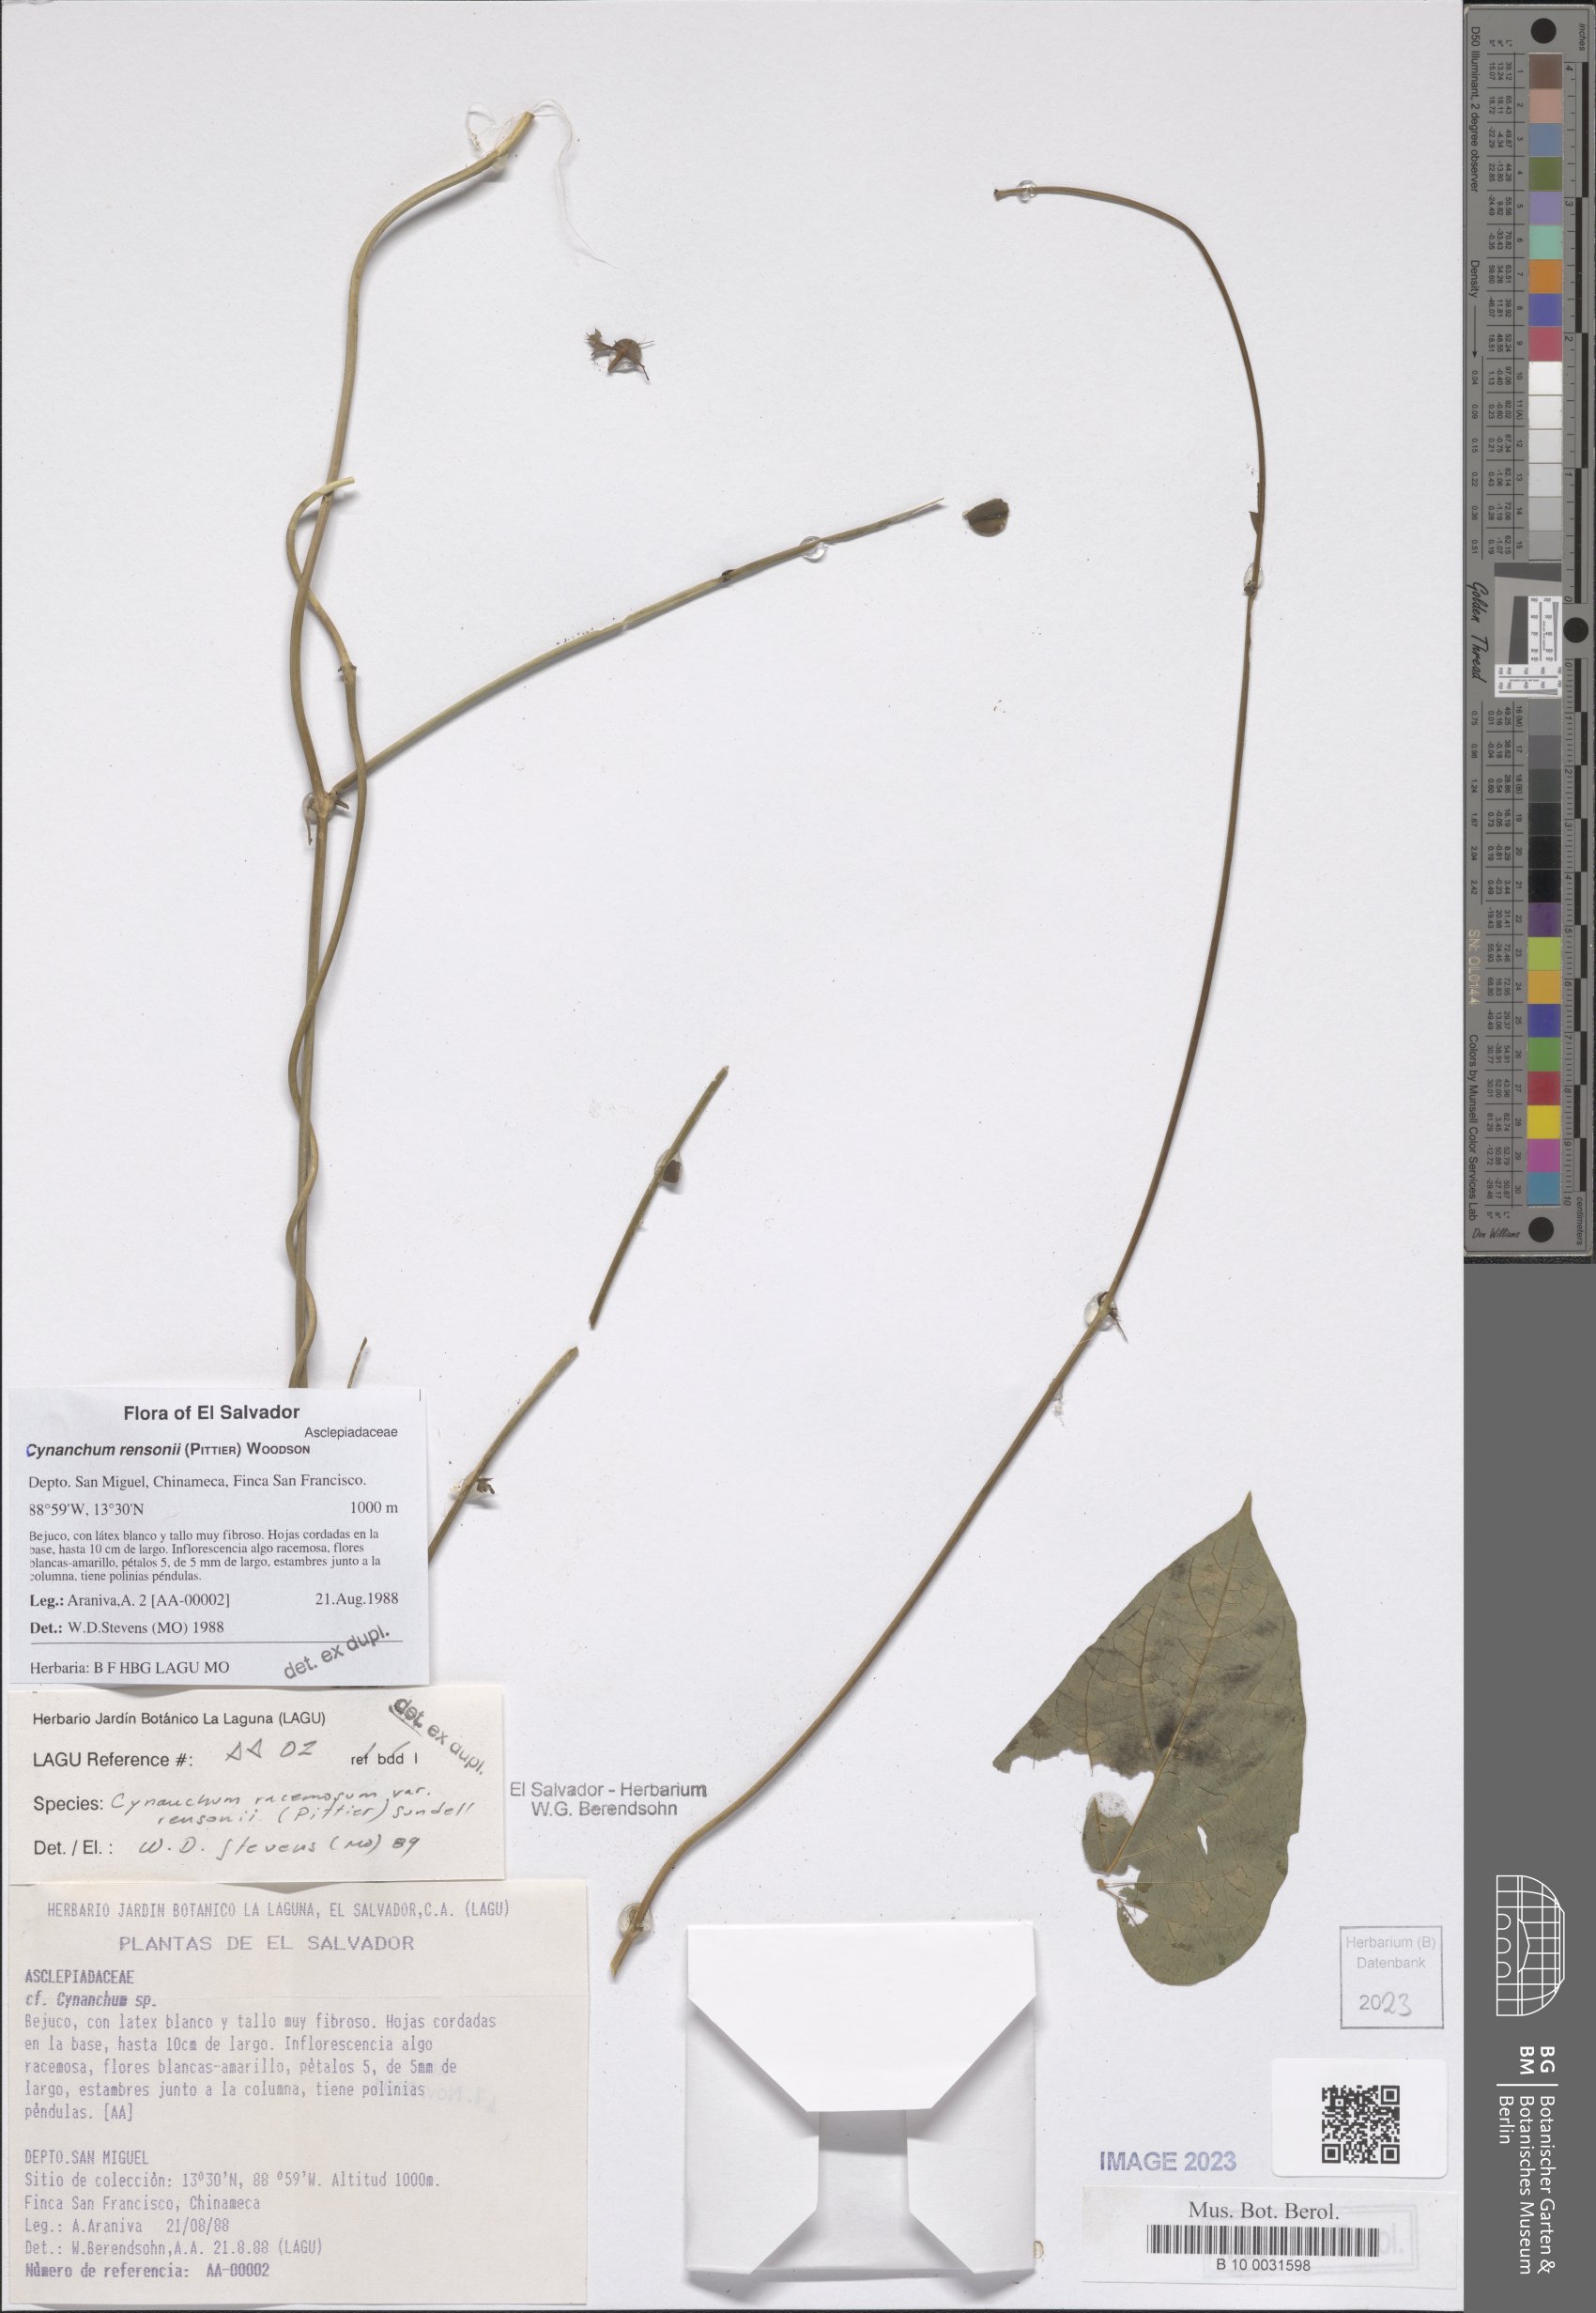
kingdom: Plantae
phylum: Tracheophyta
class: Magnoliopsida
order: Gentianales
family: Apocynaceae
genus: Cynanchum
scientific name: Cynanchum rensonii
